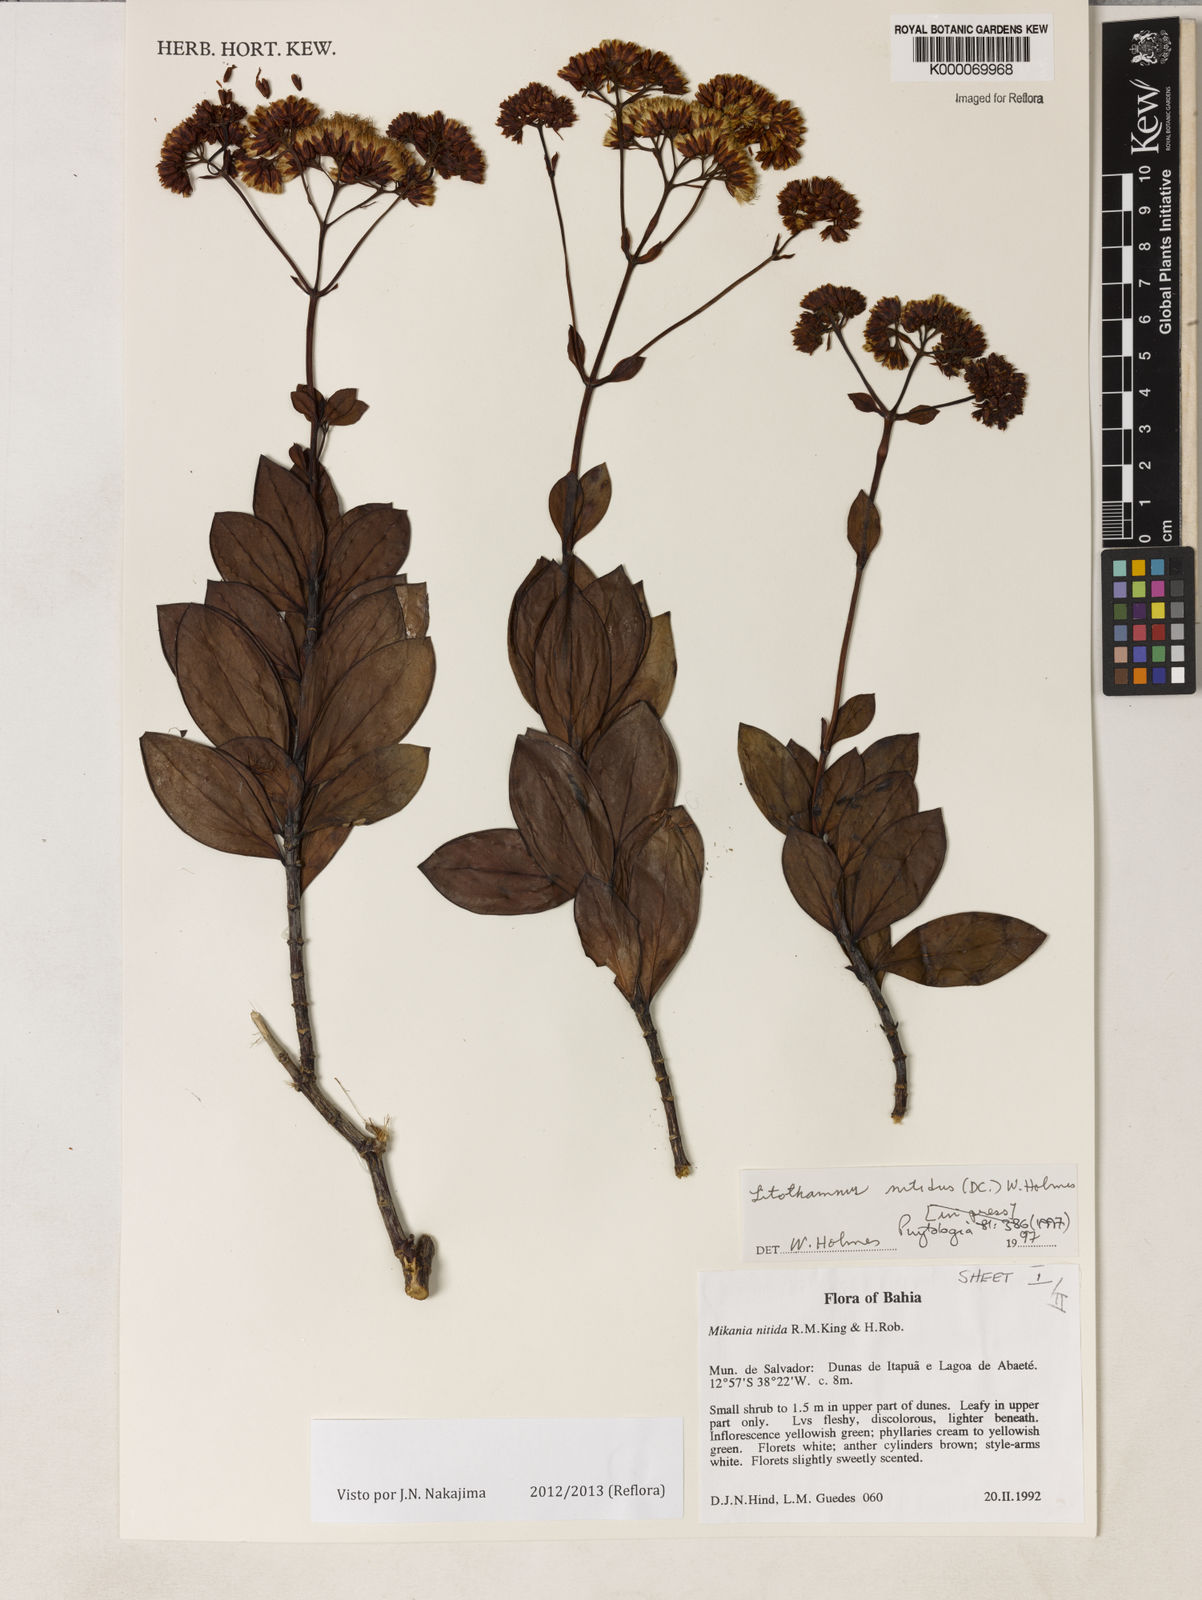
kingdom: Plantae
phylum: Tracheophyta
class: Magnoliopsida
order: Asterales
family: Asteraceae
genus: Litothamnus
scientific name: Litothamnus nitidus
